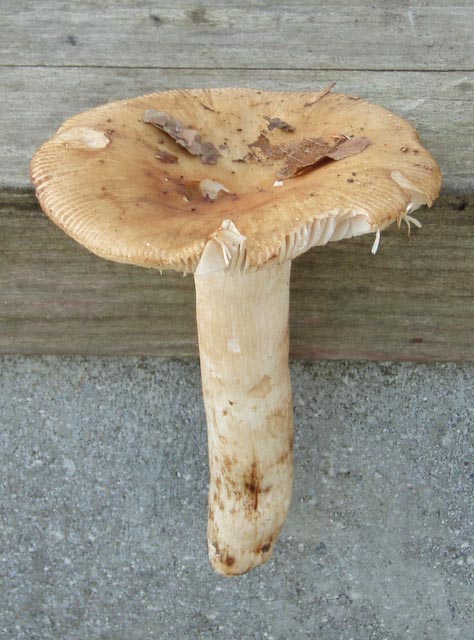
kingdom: Fungi
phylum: Basidiomycota
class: Agaricomycetes
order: Russulales
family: Russulaceae
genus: Russula
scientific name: Russula grata
